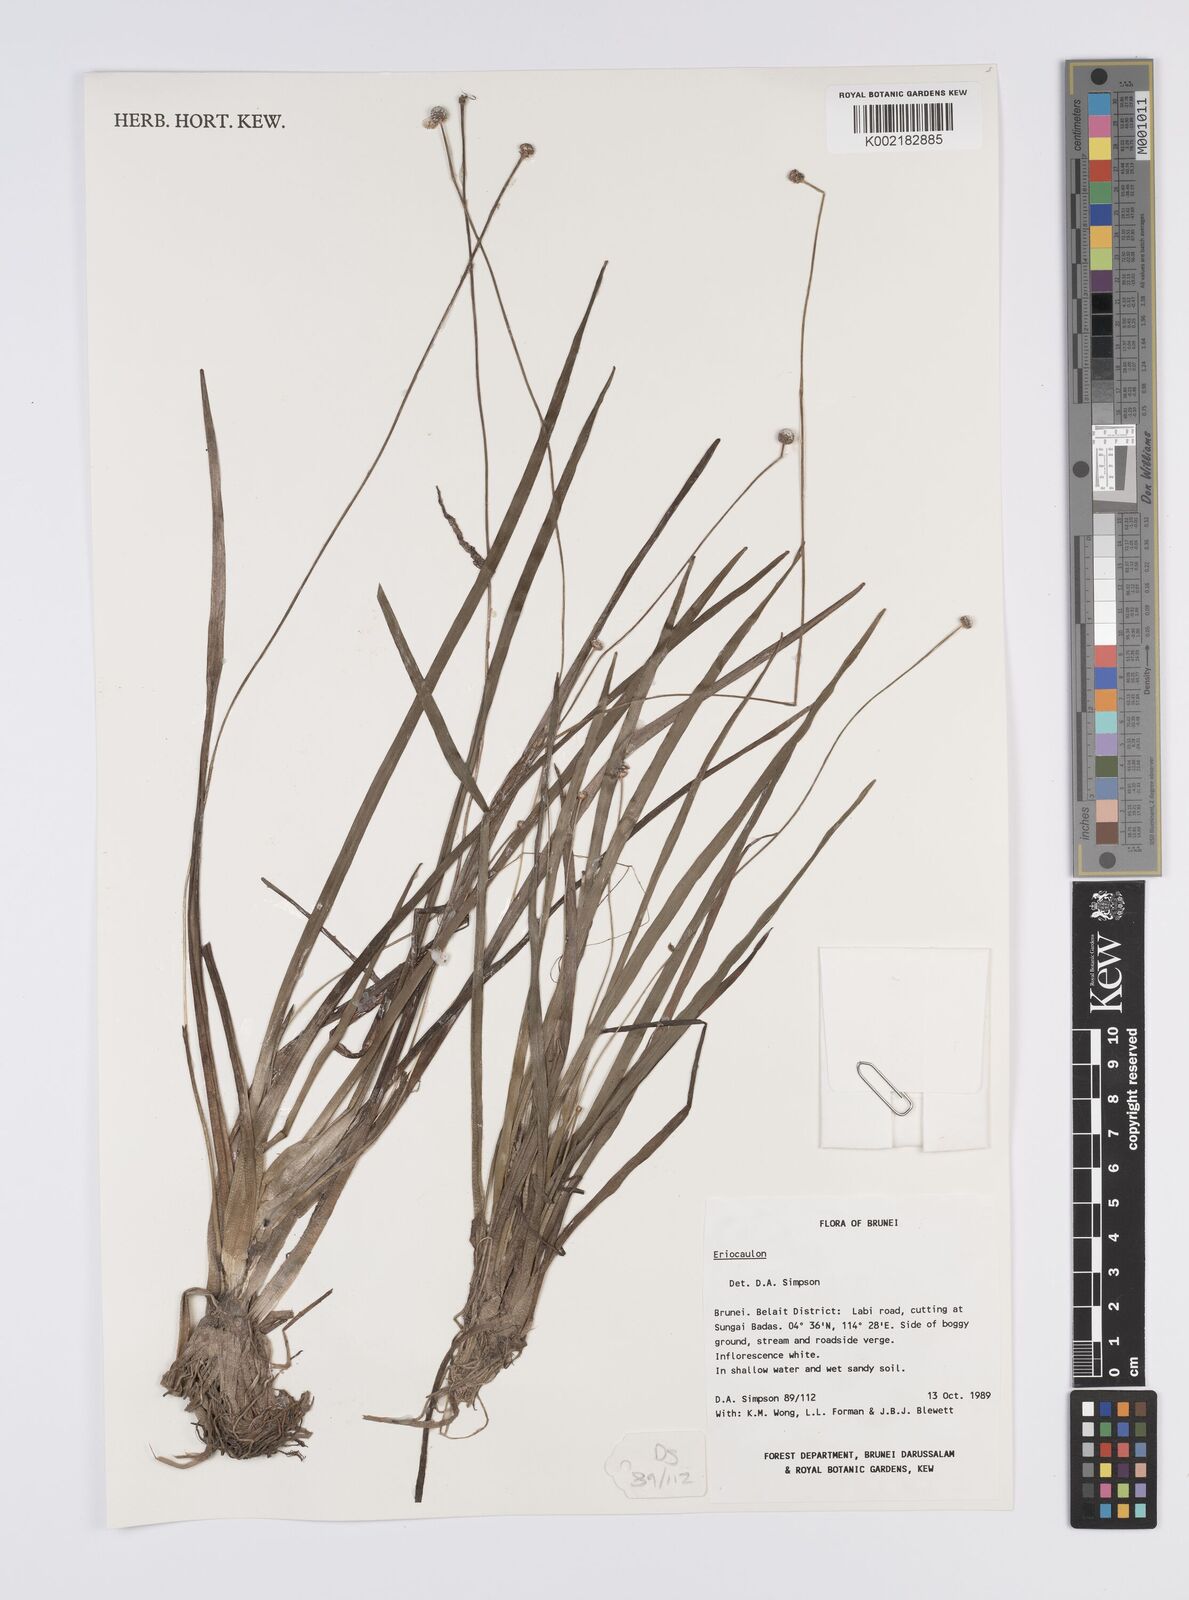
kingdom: Plantae
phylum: Tracheophyta
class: Liliopsida
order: Poales
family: Eriocaulaceae
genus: Eriocaulon
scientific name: Eriocaulon
